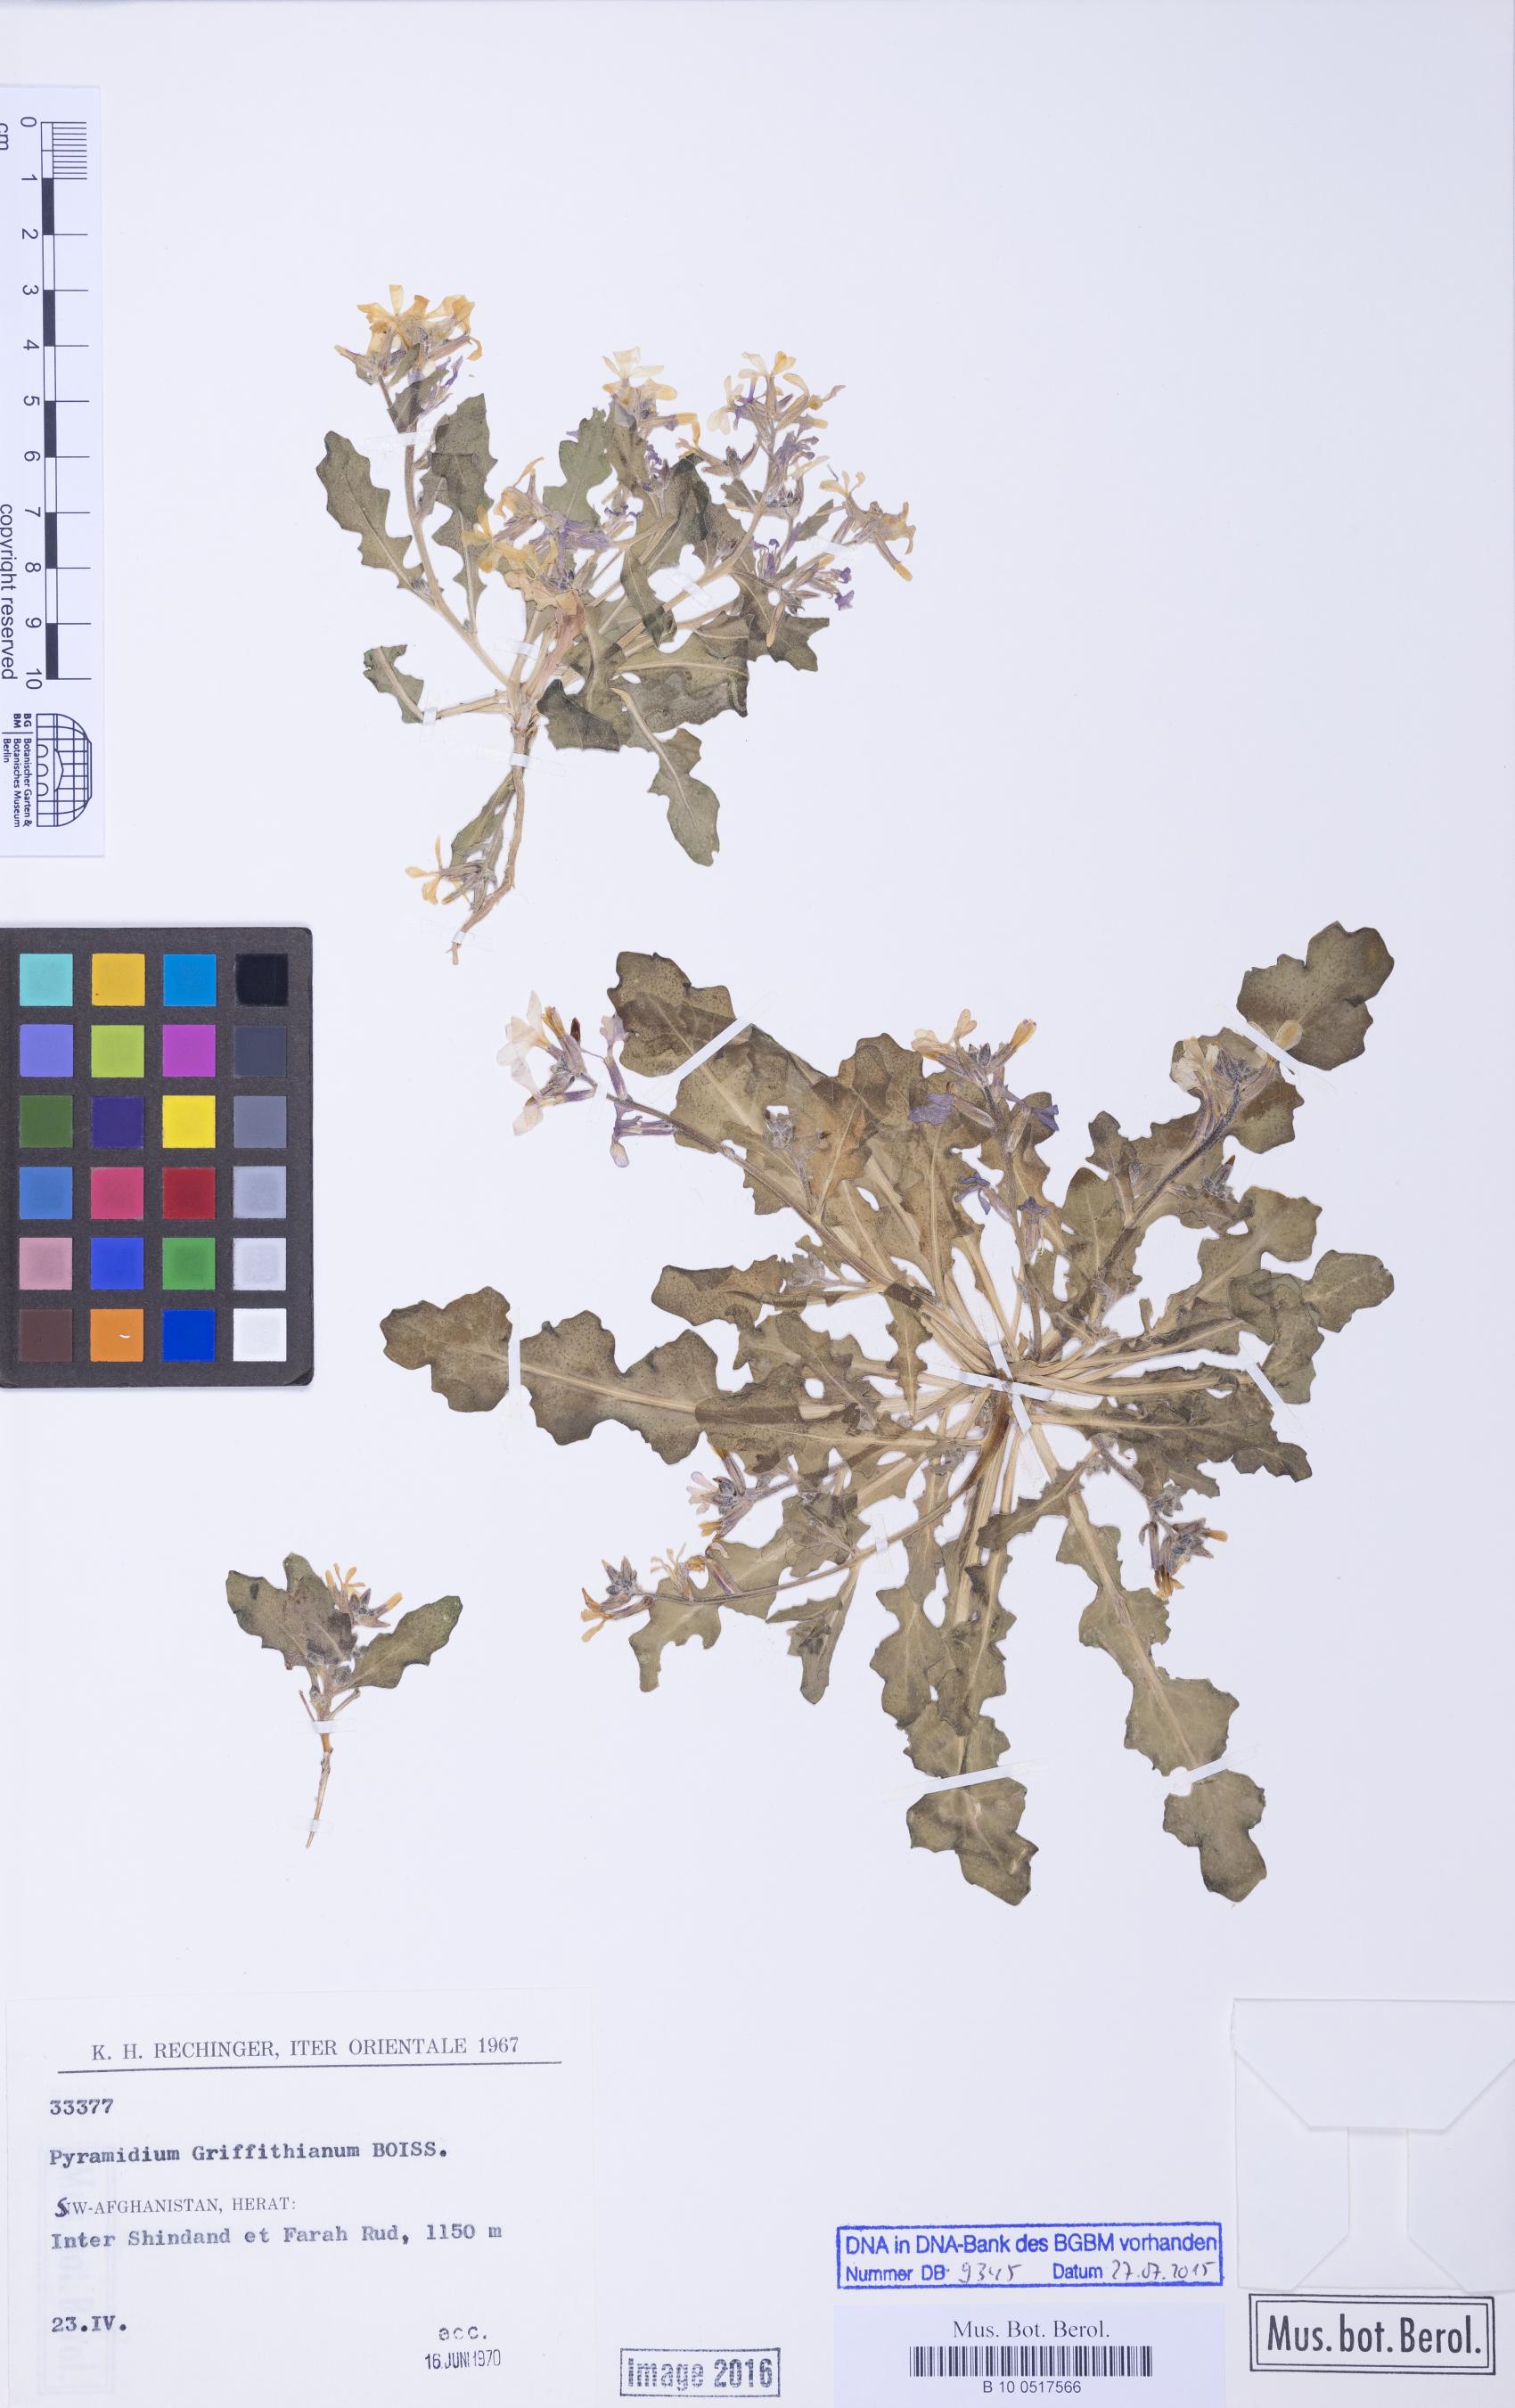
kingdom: Plantae
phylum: Tracheophyta
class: Magnoliopsida
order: Brassicales
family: Brassicaceae
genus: Veselskya
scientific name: Veselskya griffithiana
